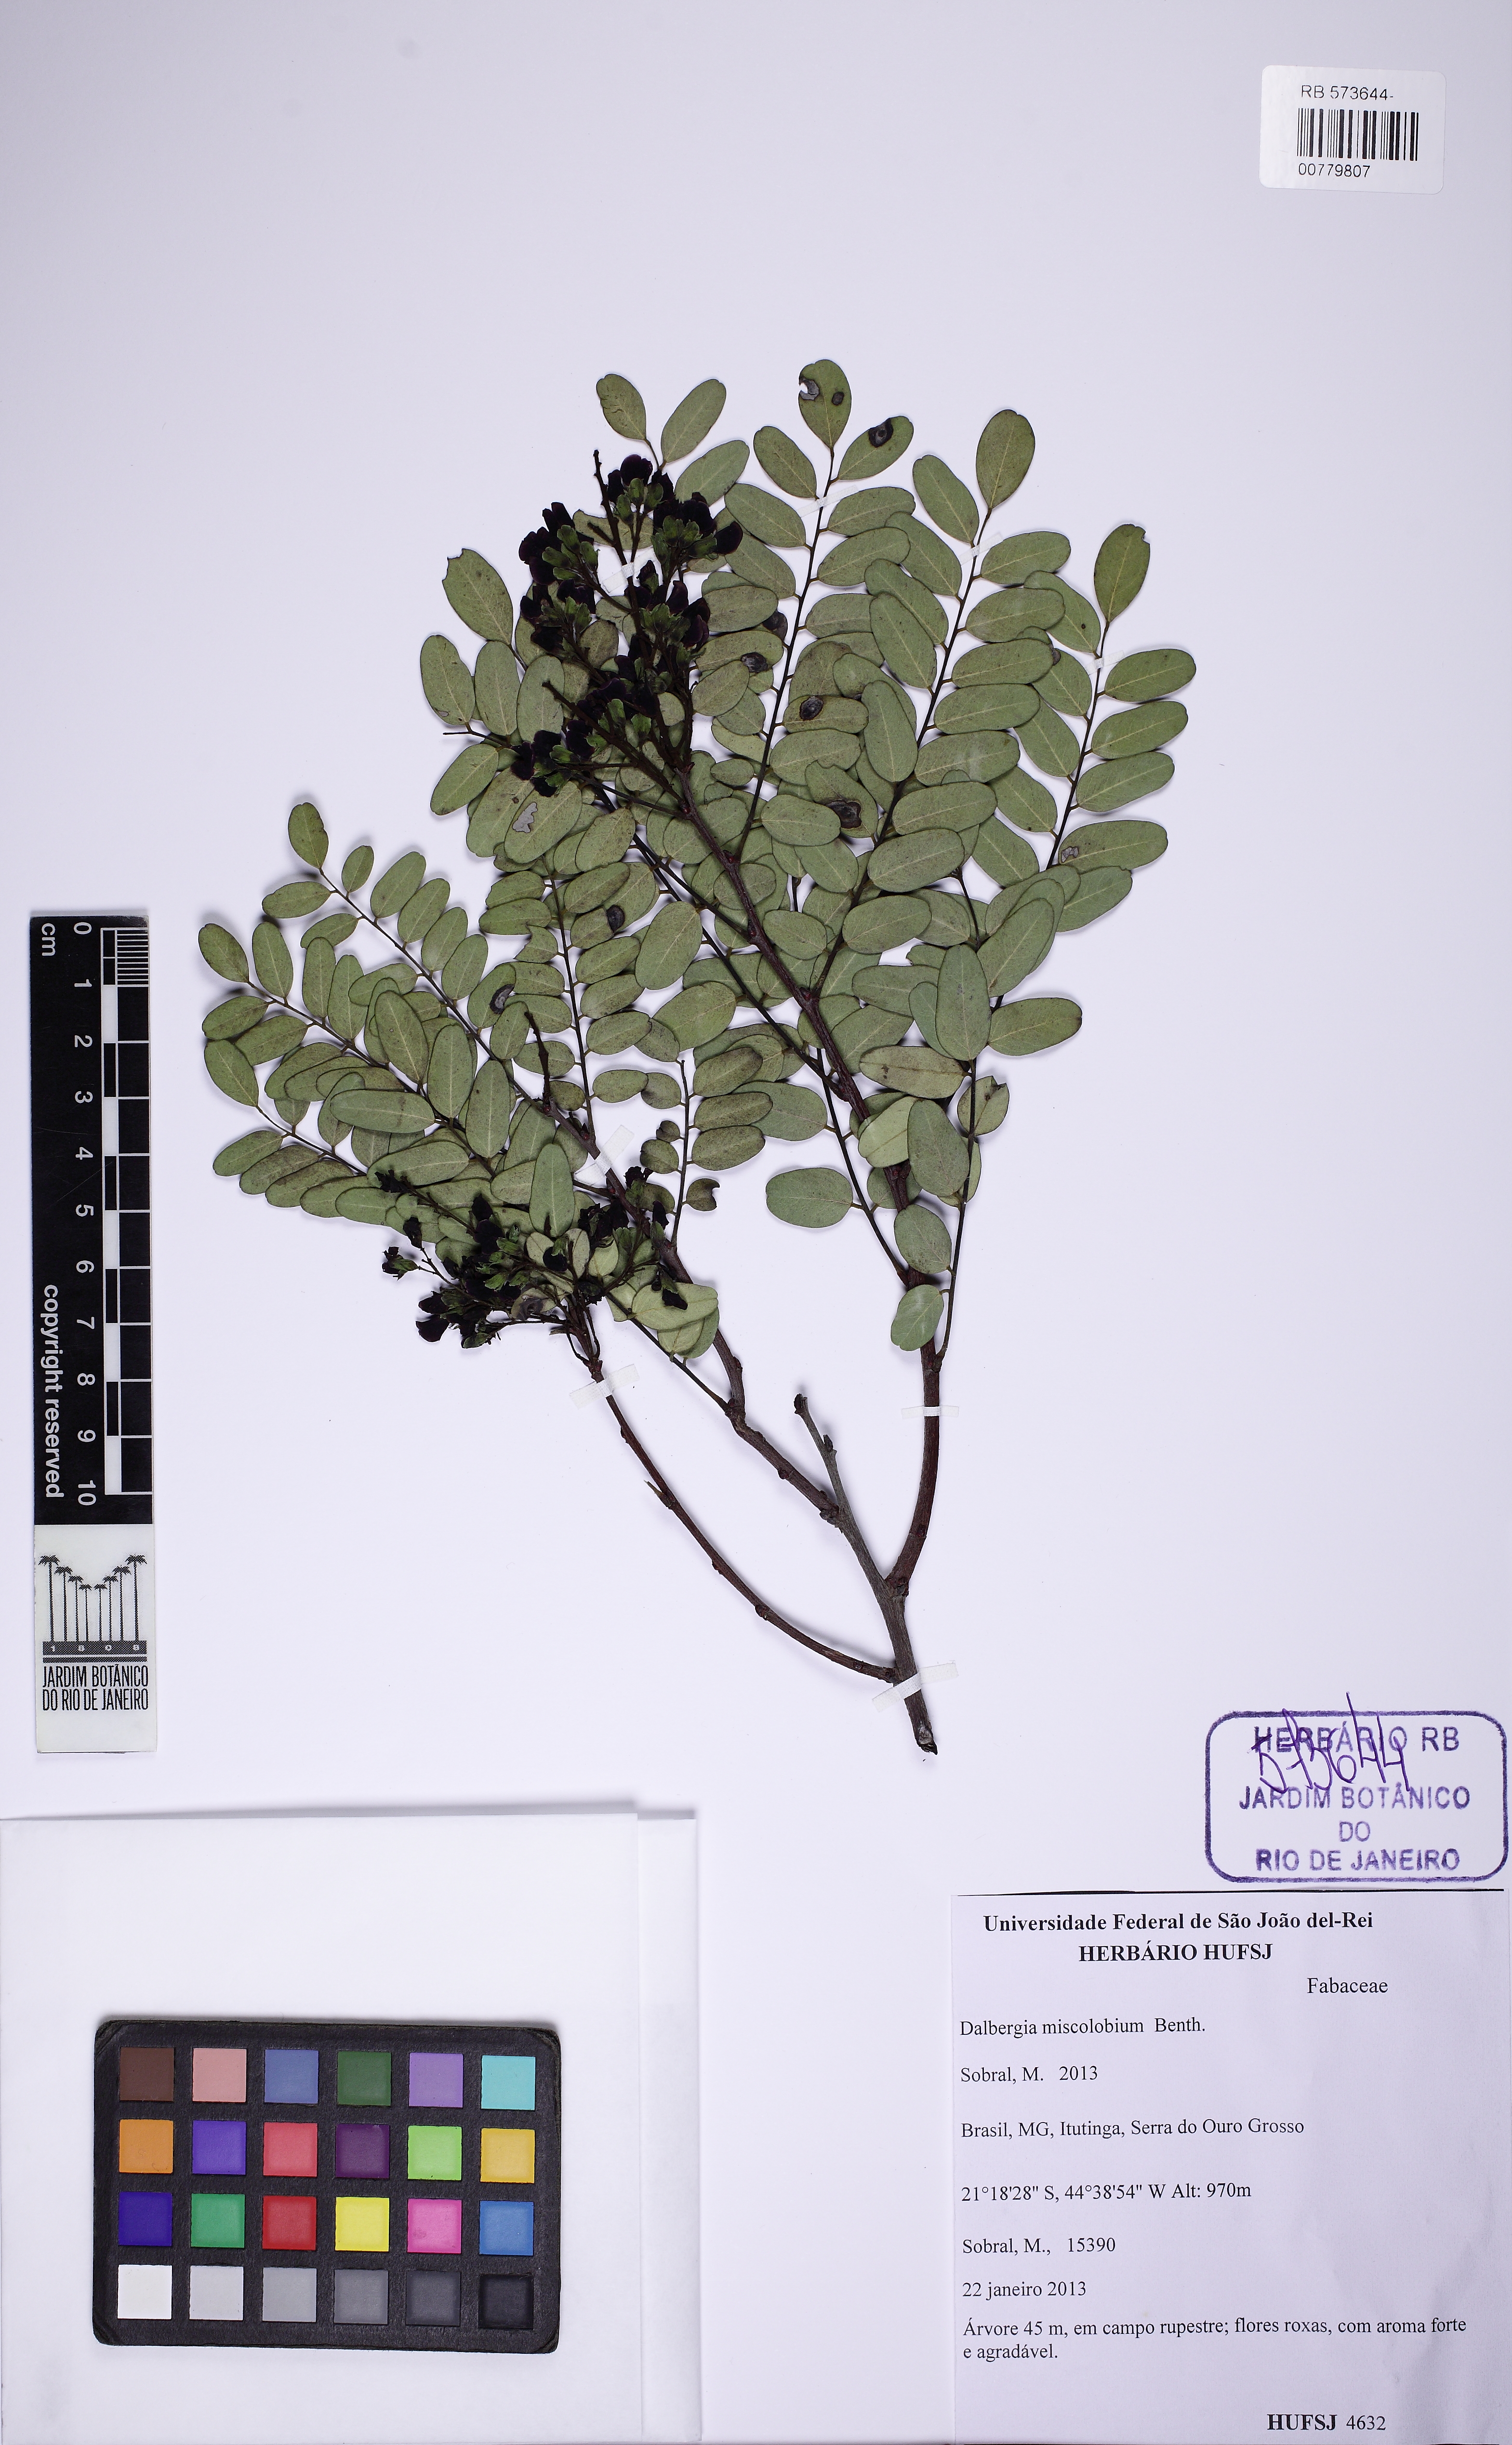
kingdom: Plantae
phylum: Tracheophyta
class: Magnoliopsida
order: Fabales
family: Fabaceae
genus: Dalbergia
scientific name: Dalbergia miscolobium
